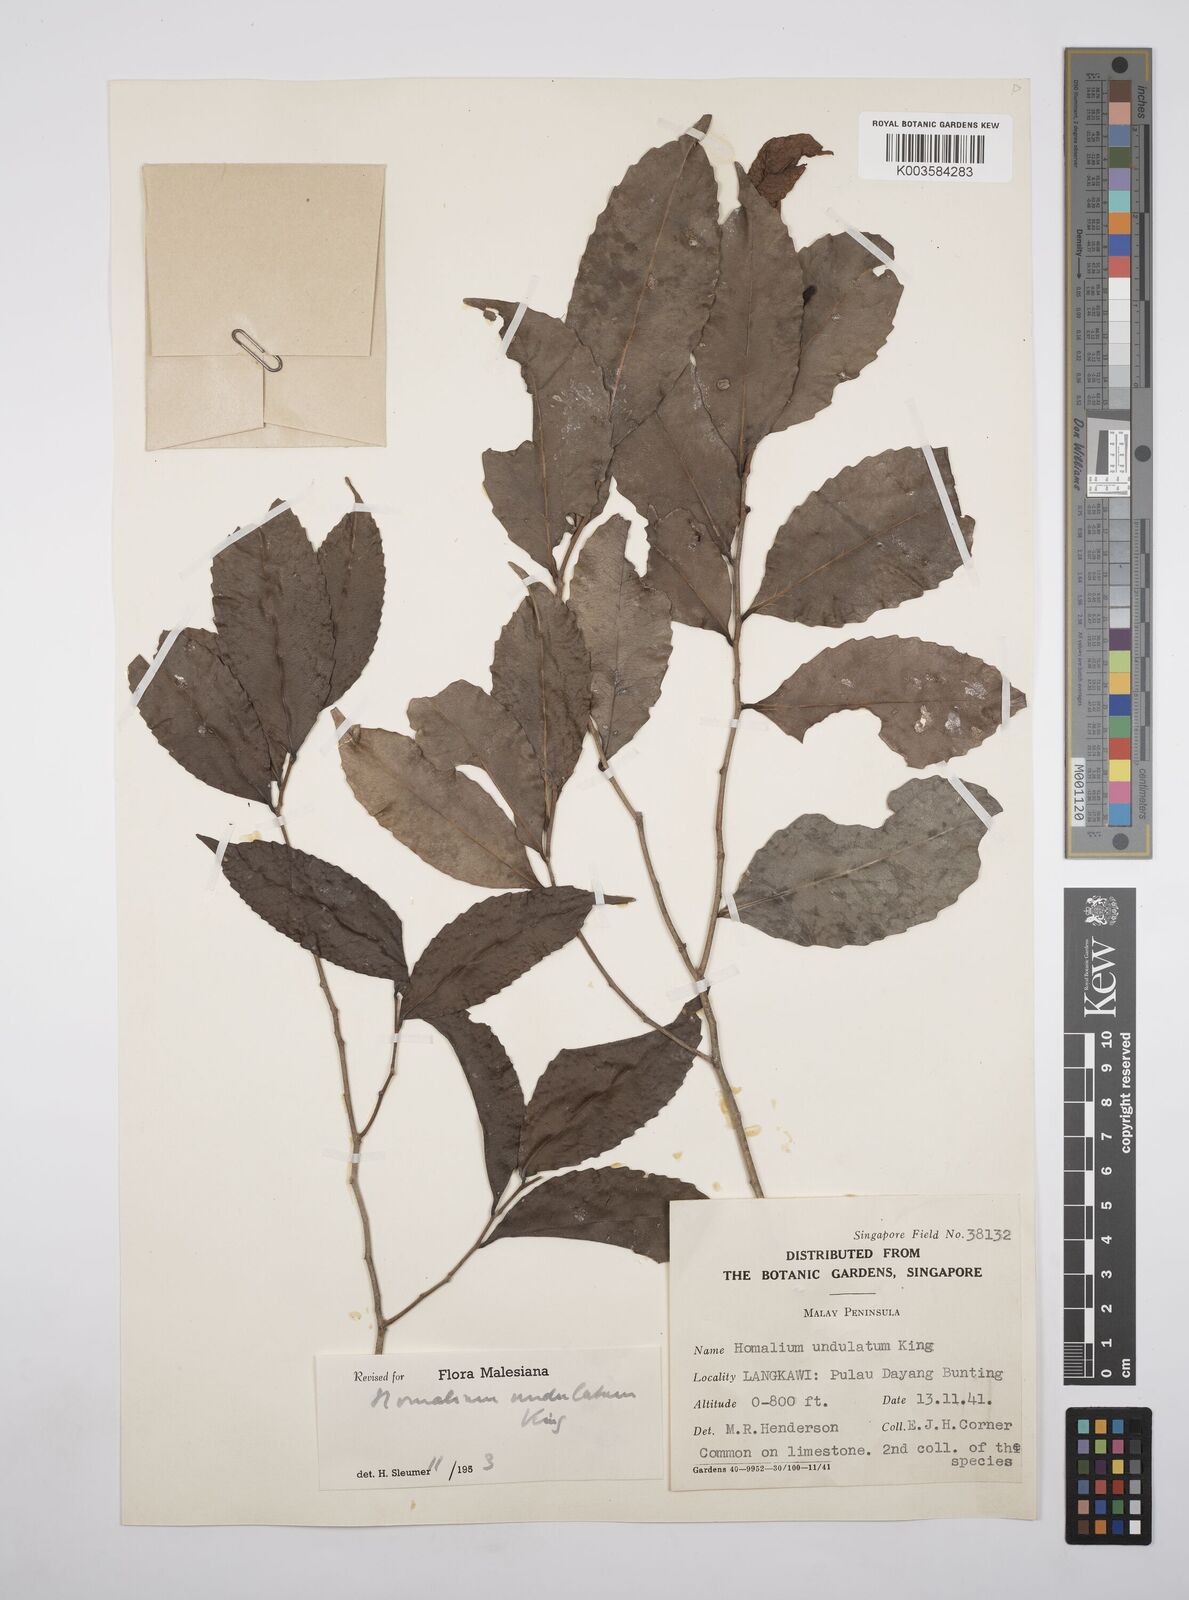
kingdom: Plantae
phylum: Tracheophyta
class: Magnoliopsida
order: Malpighiales
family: Salicaceae
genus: Homalium
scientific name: Homalium undulatum
